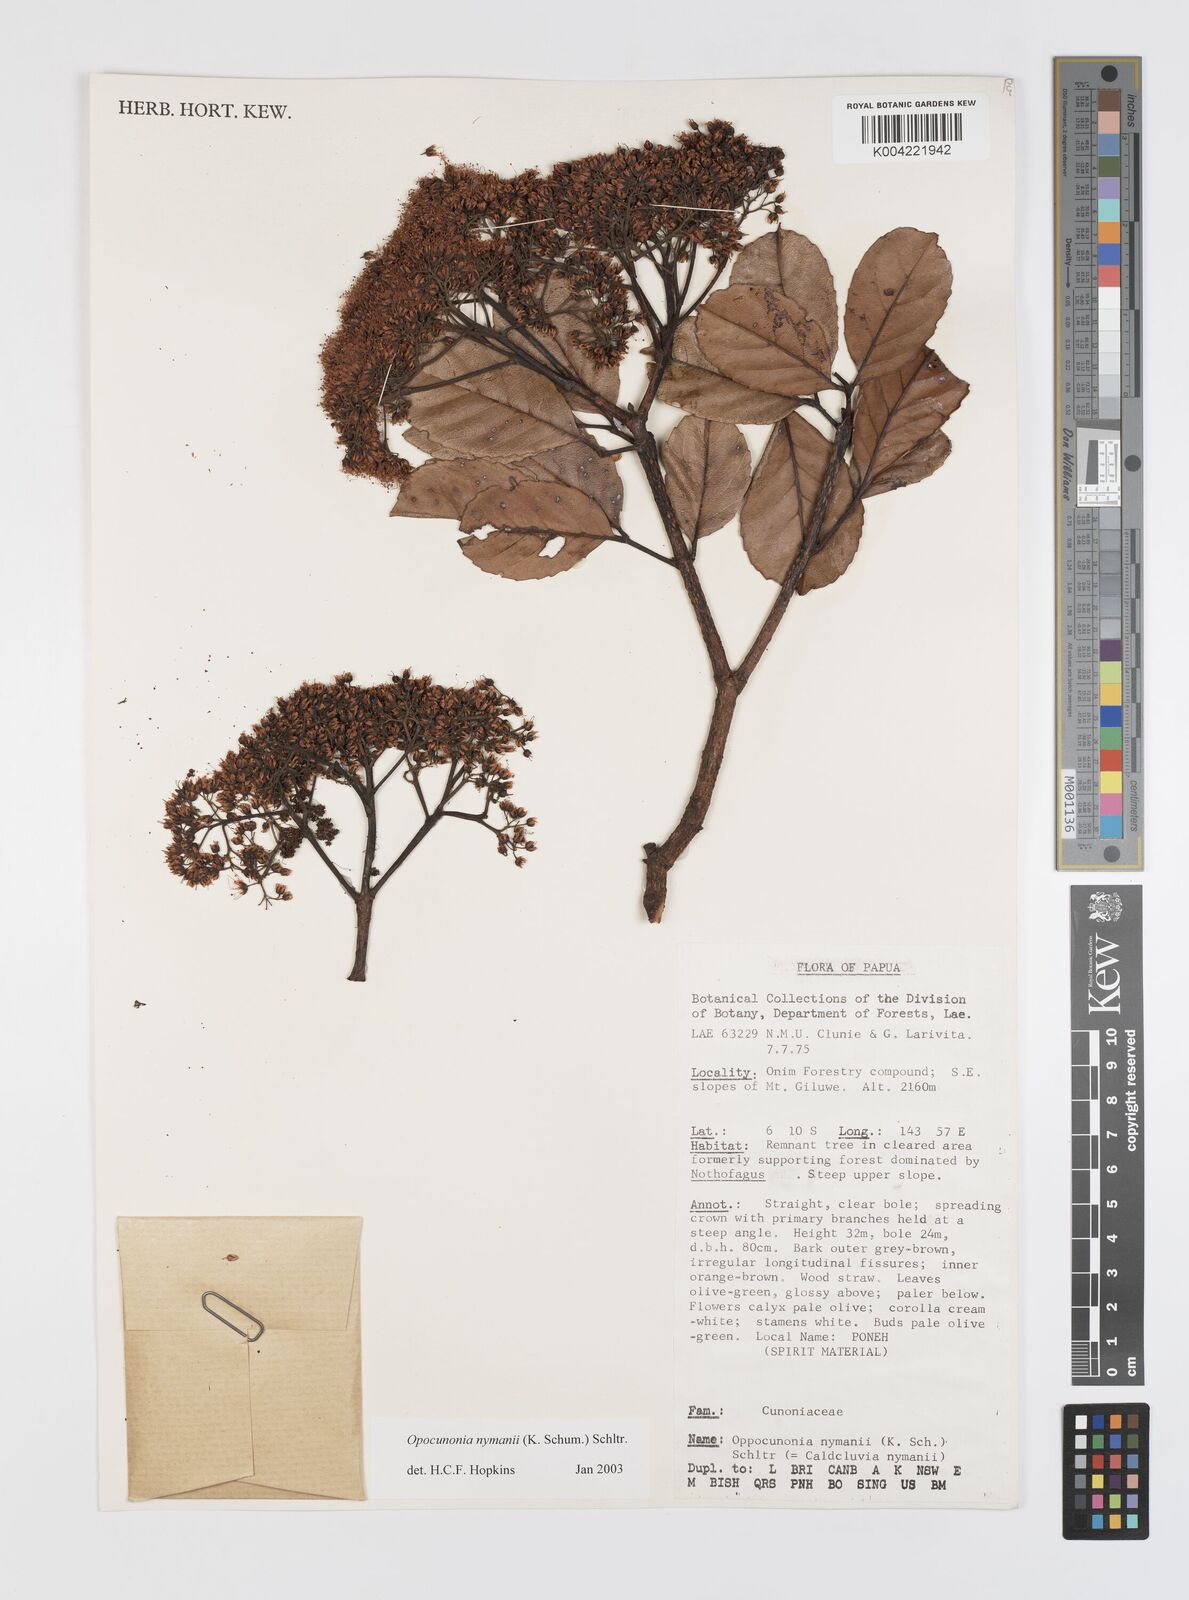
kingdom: Plantae
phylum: Tracheophyta
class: Magnoliopsida
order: Oxalidales
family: Cunoniaceae
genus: Opocunonia
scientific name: Opocunonia nymanii
